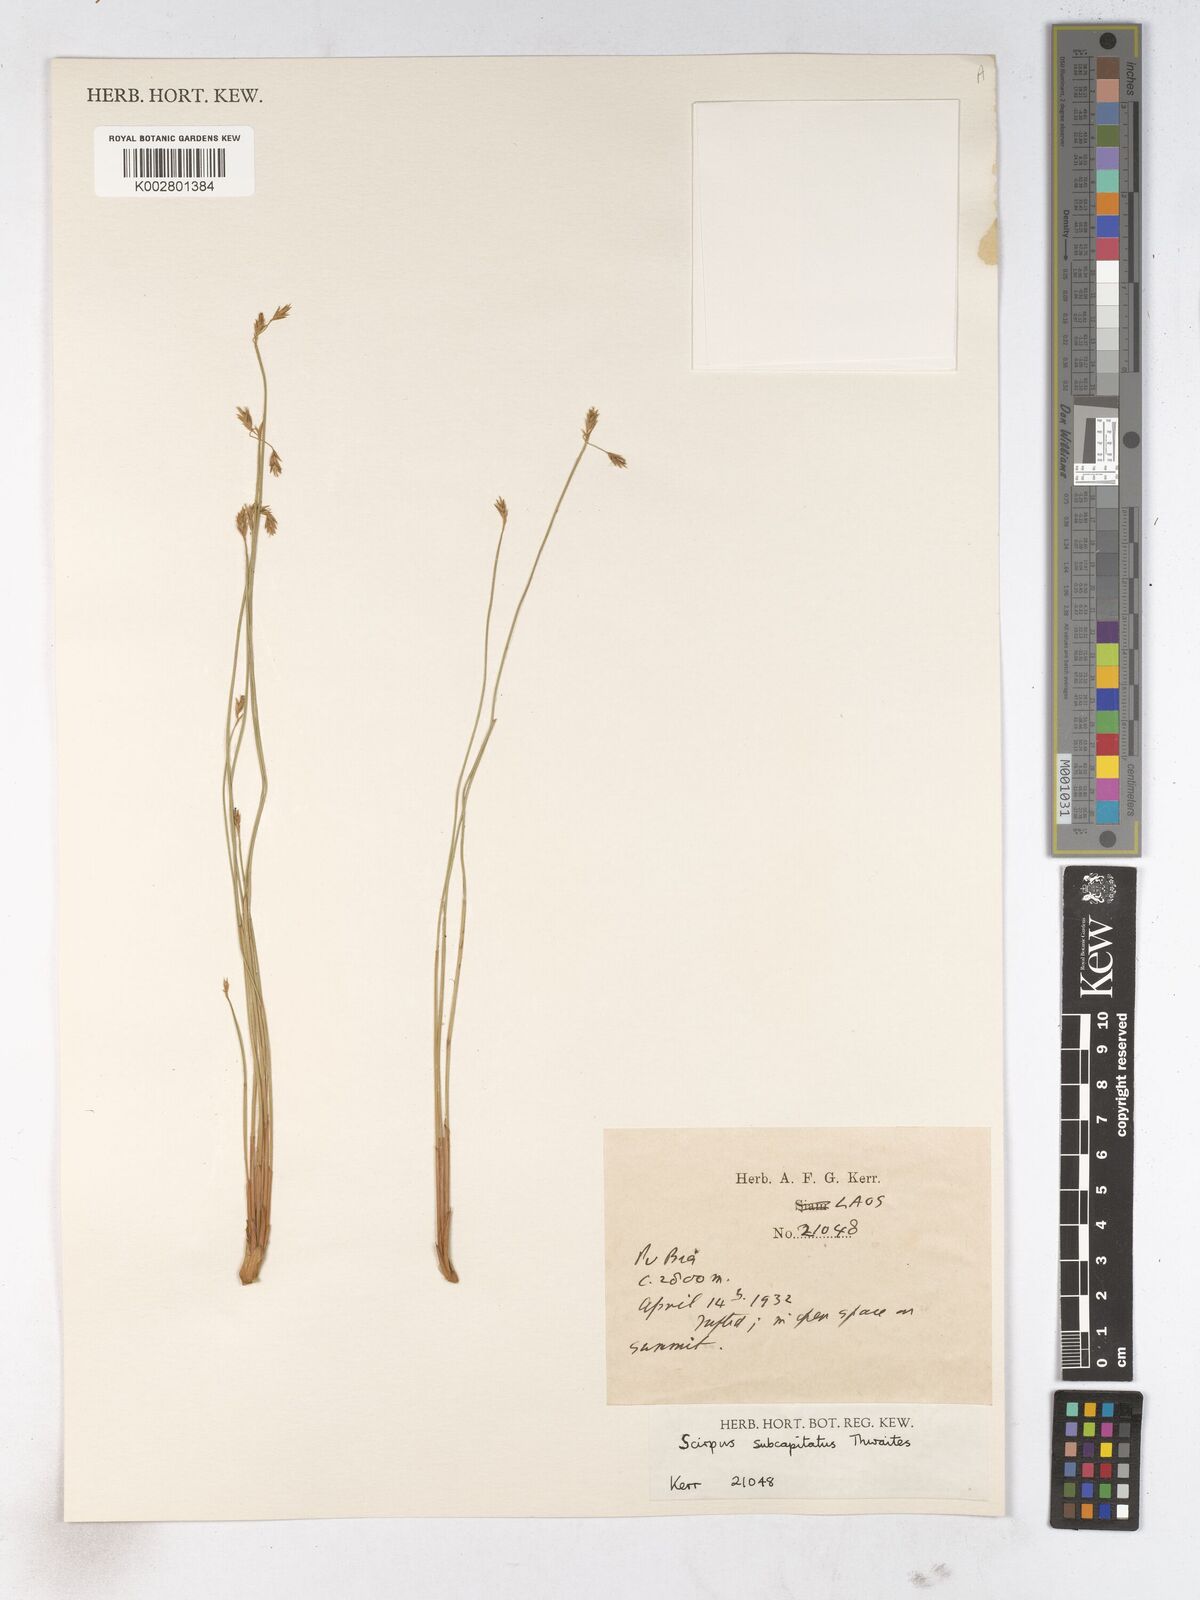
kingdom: Plantae
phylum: Tracheophyta
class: Liliopsida
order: Poales
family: Cyperaceae
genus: Trichophorum
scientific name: Trichophorum subcapitatum
